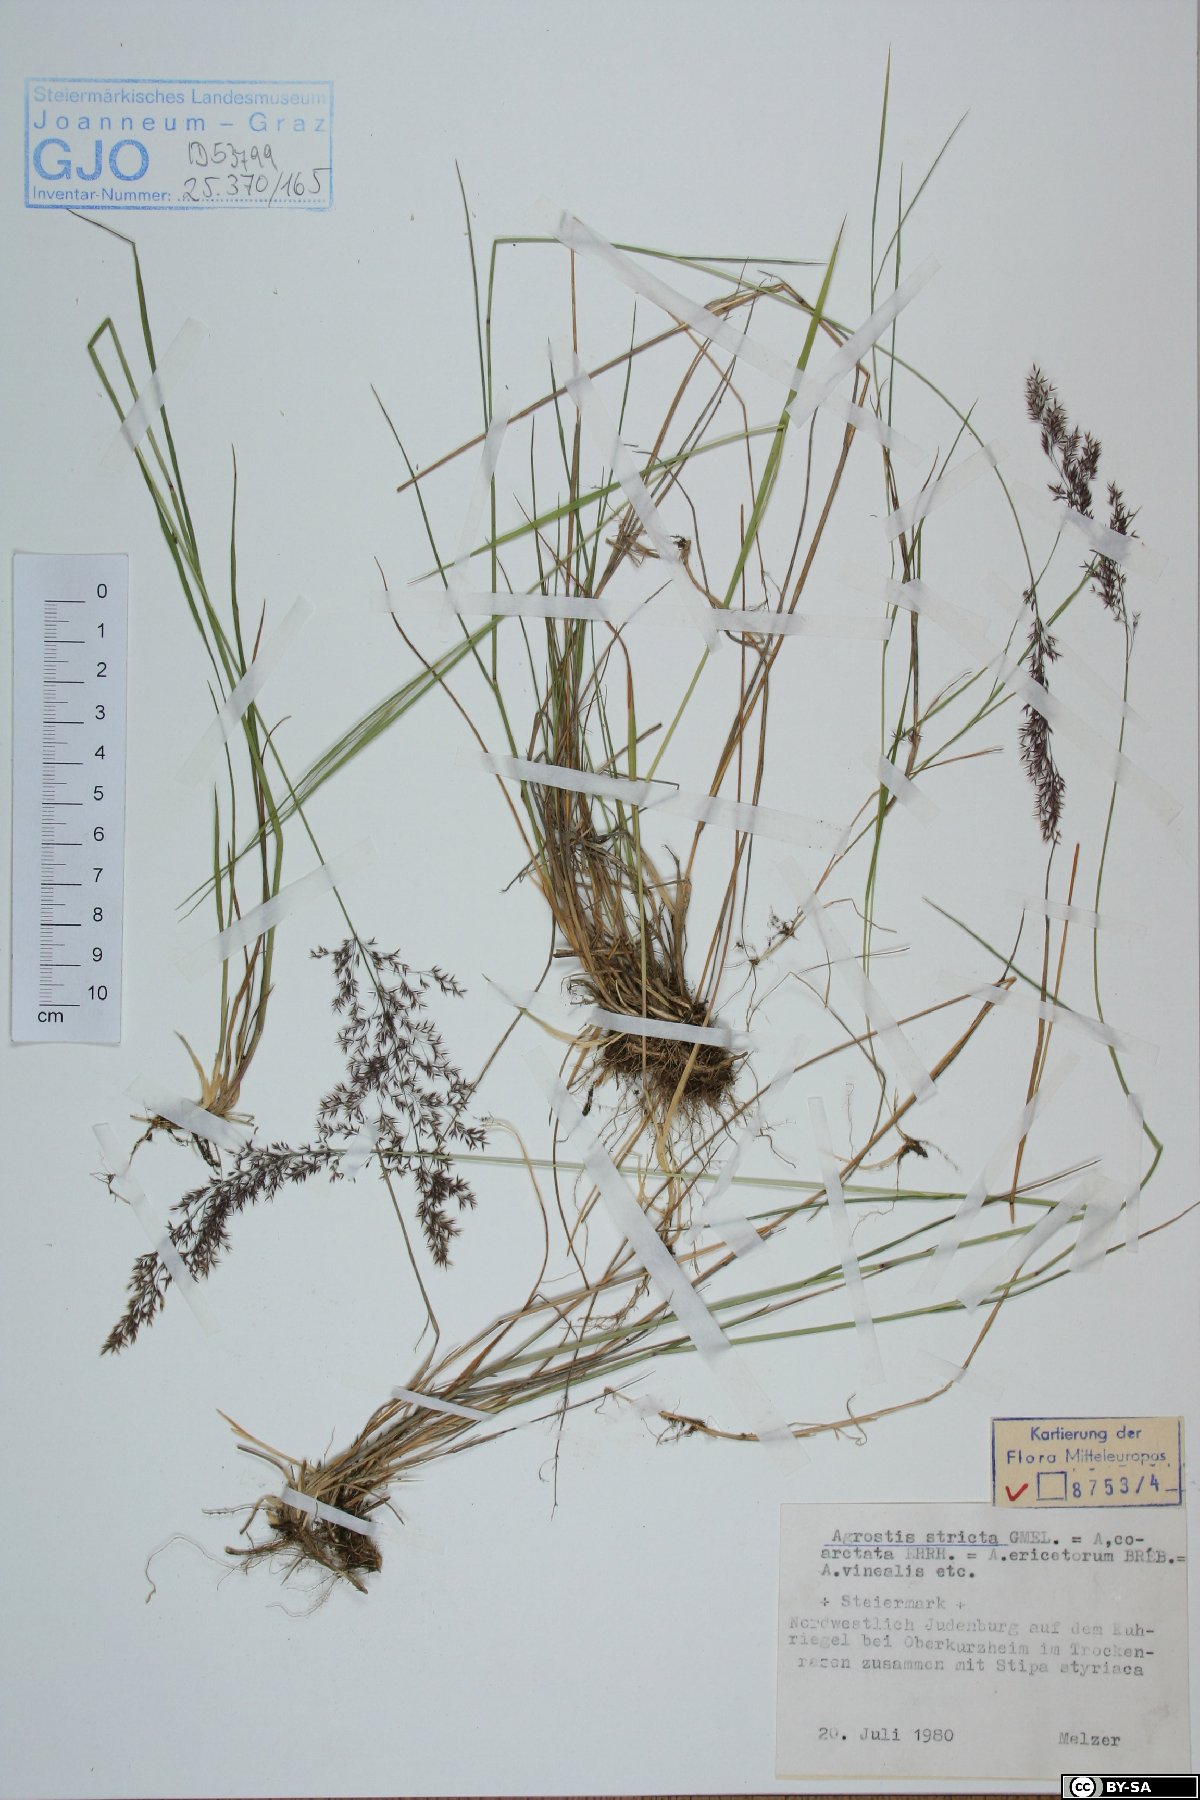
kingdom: Plantae
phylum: Tracheophyta
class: Liliopsida
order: Poales
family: Poaceae
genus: Agrostis
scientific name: Agrostis vinealis
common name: Brown bent
